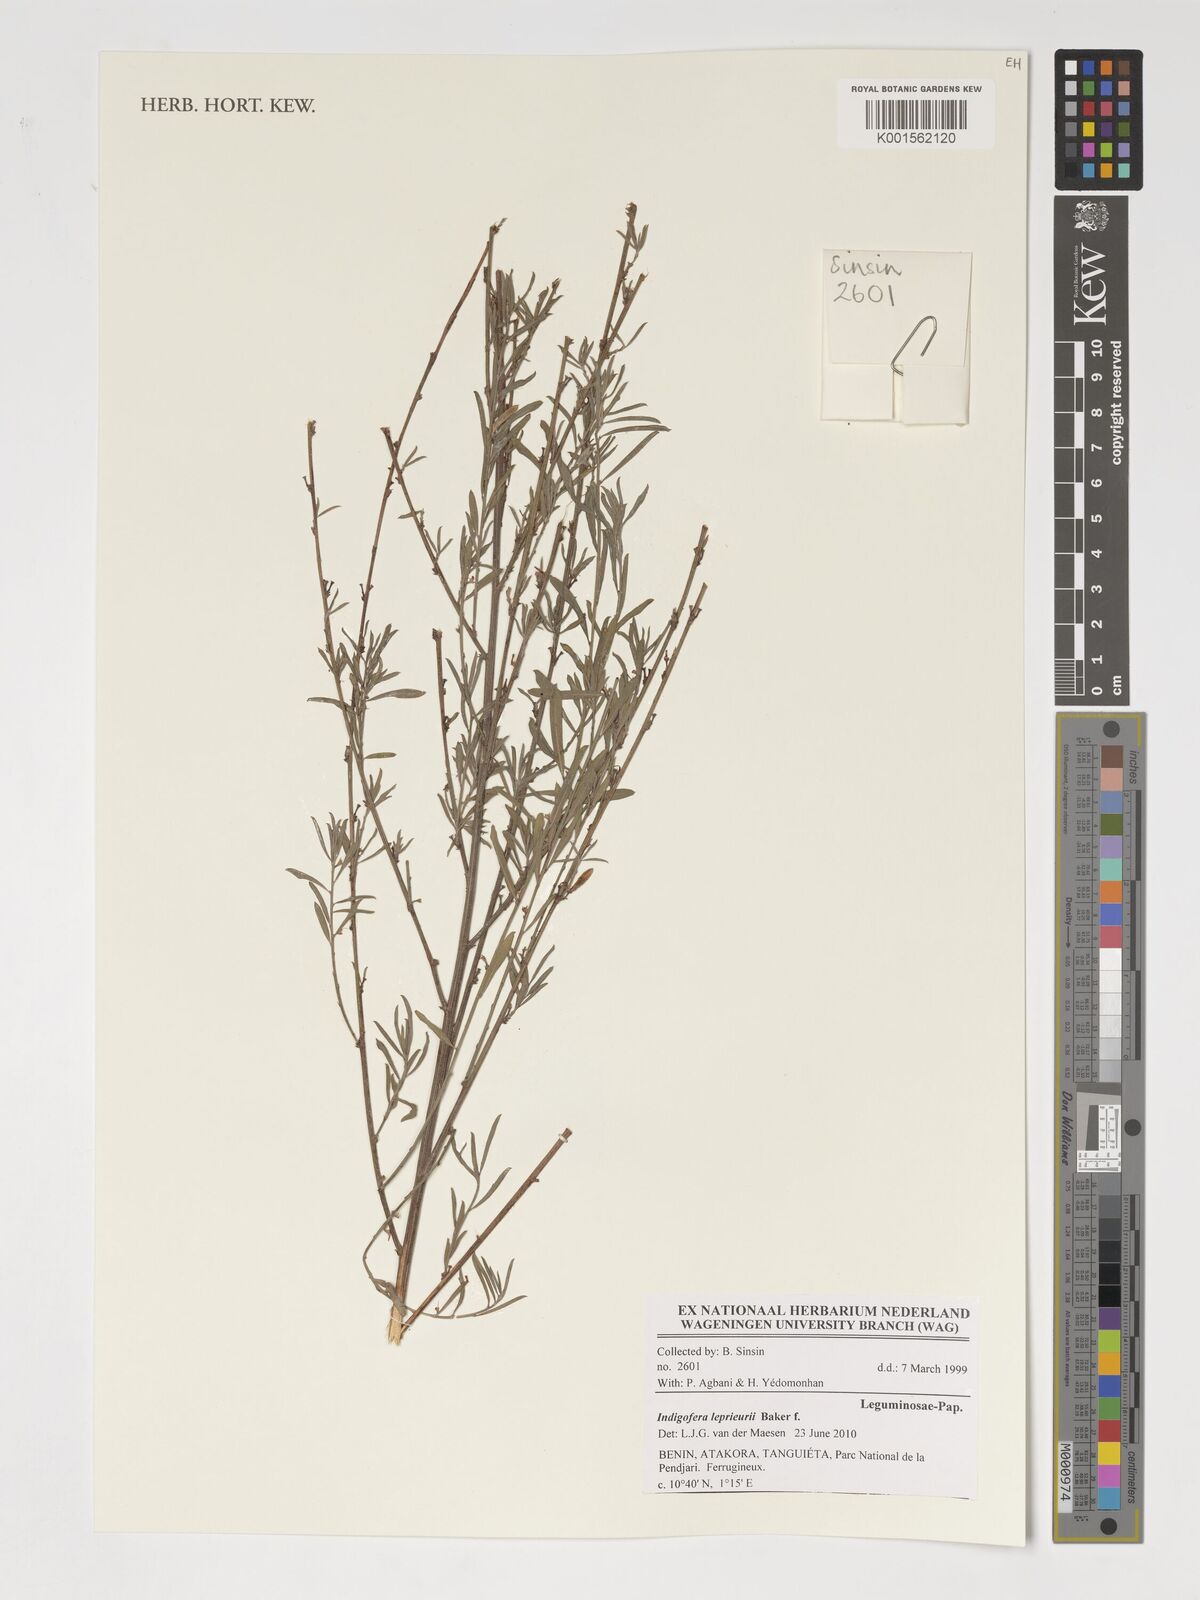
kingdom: Plantae
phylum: Tracheophyta
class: Magnoliopsida
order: Fabales
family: Fabaceae
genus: Indigofera
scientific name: Indigofera leprieurii
